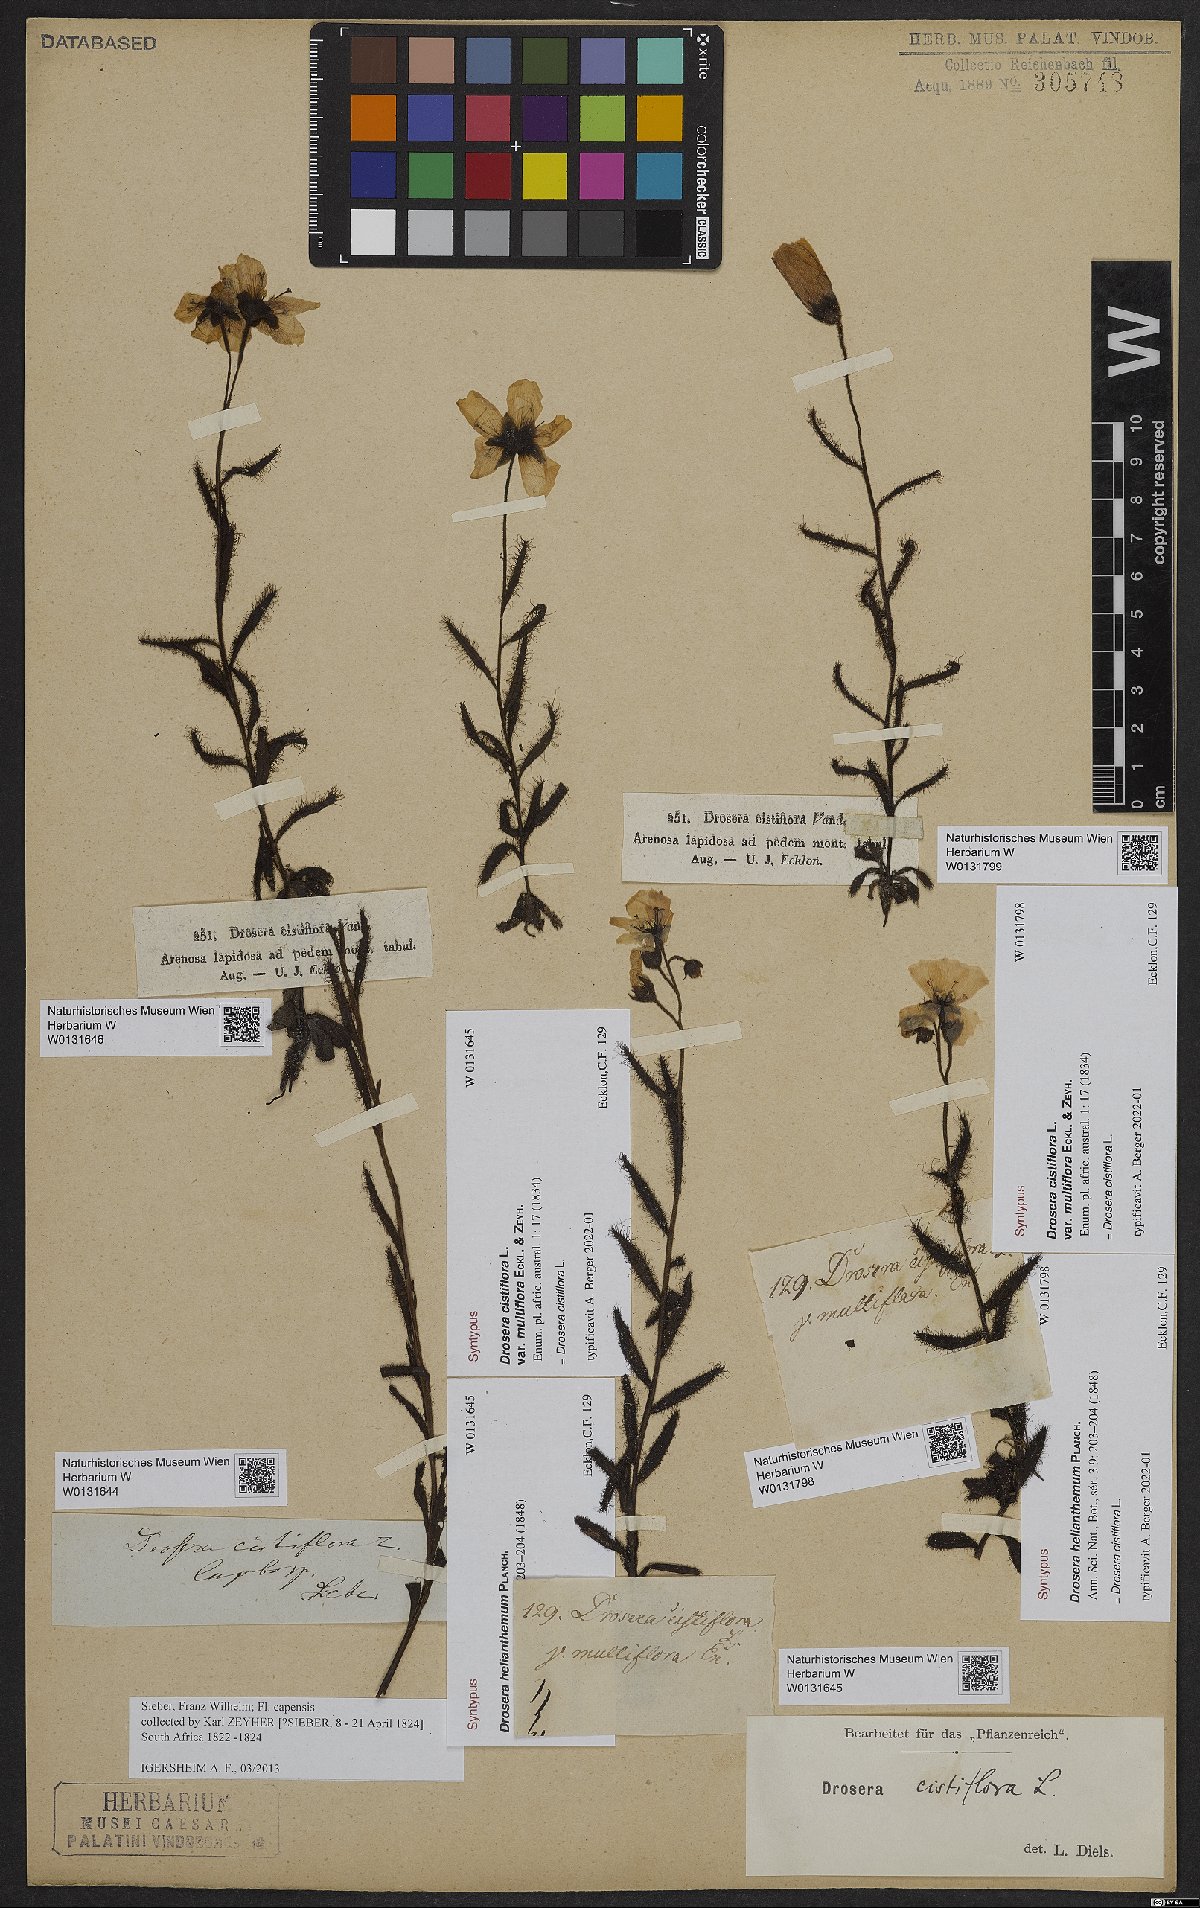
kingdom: Plantae
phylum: Tracheophyta
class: Magnoliopsida
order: Caryophyllales
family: Droseraceae
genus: Drosera
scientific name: Drosera cistiflora
